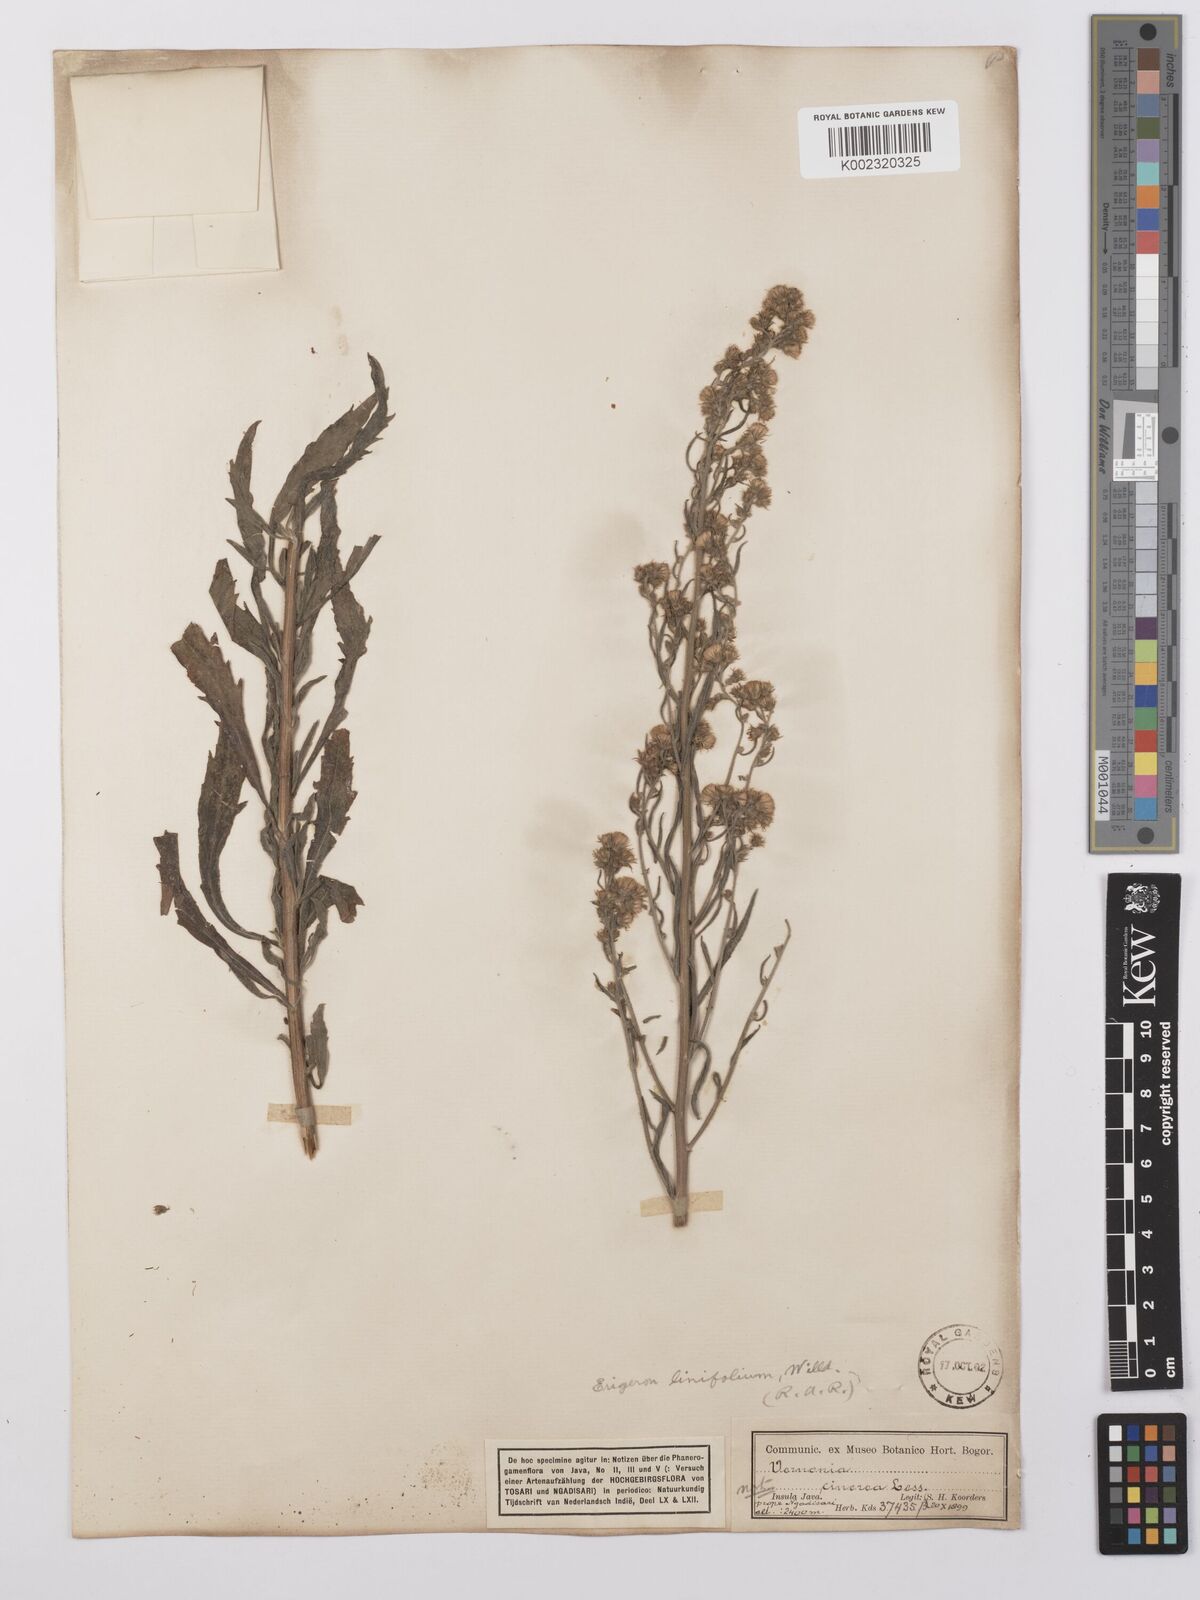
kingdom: Plantae
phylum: Tracheophyta
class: Magnoliopsida
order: Asterales
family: Asteraceae
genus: Erigeron
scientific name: Erigeron sumatrensis
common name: Daisy
